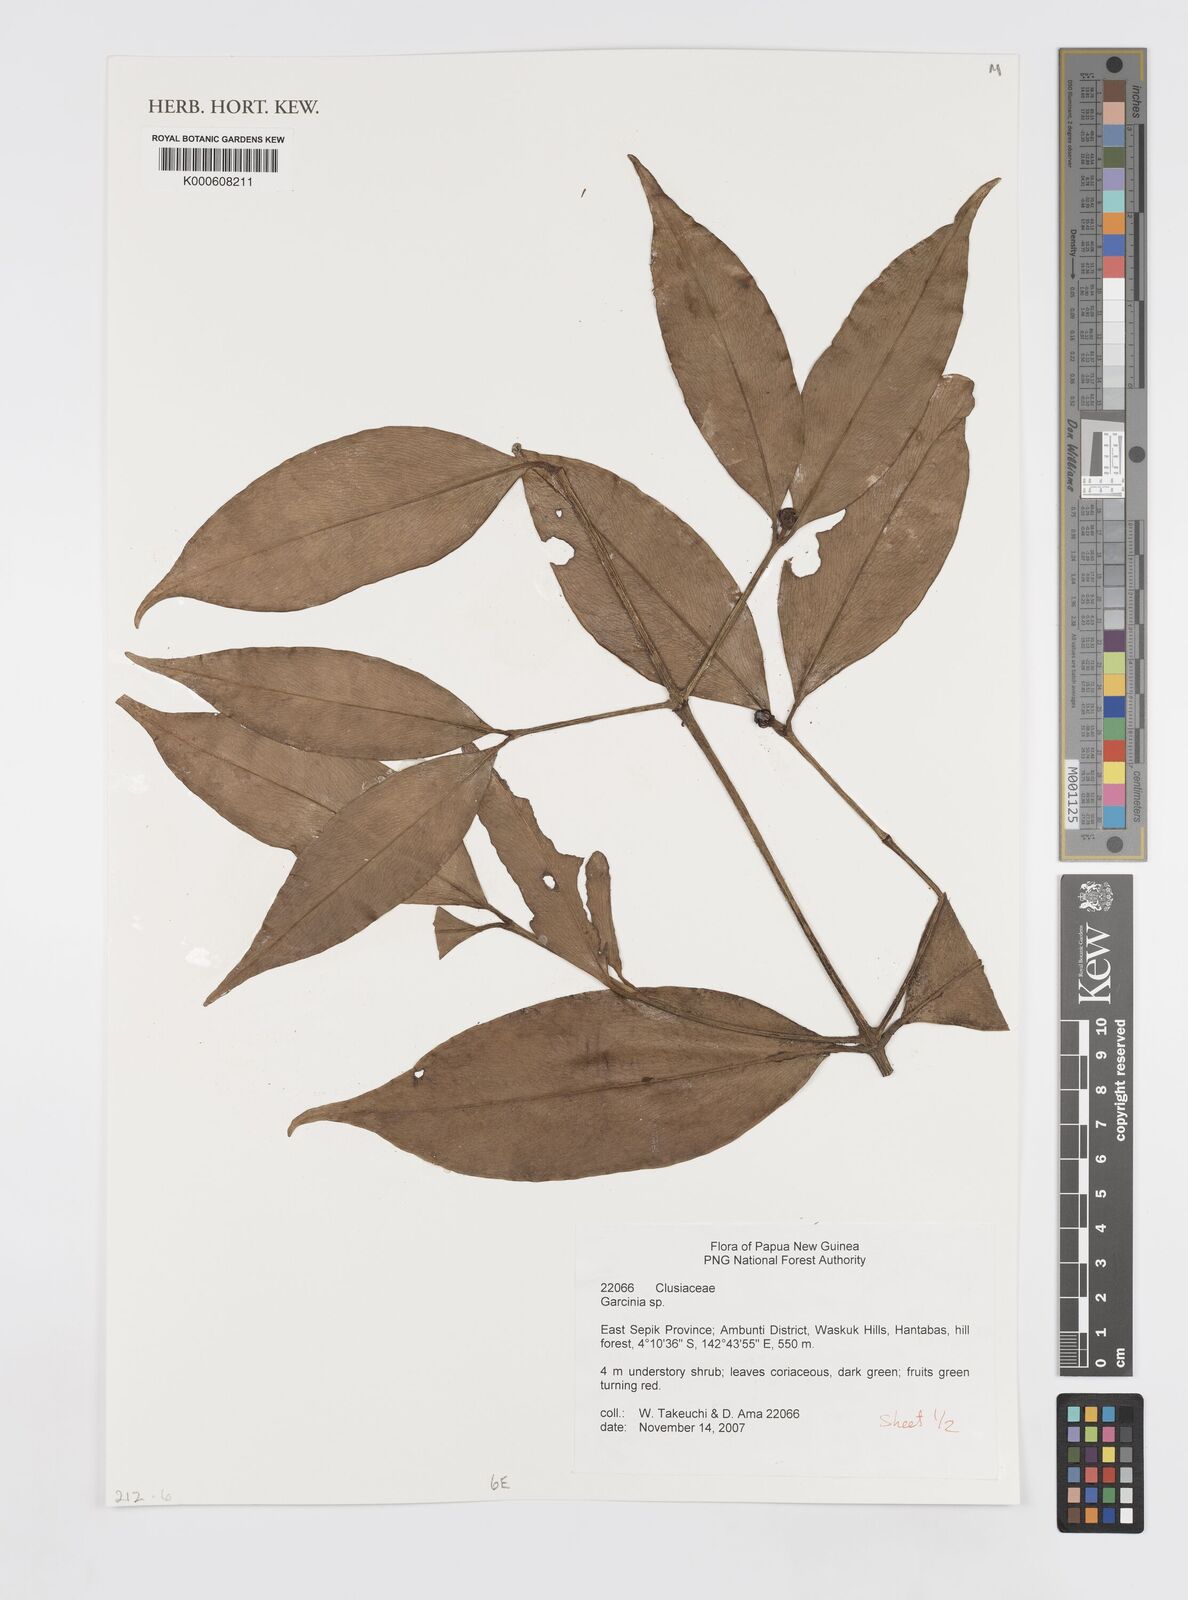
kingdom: Plantae
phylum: Tracheophyta
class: Magnoliopsida
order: Malpighiales
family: Clusiaceae
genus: Garcinia
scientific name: Garcinia
